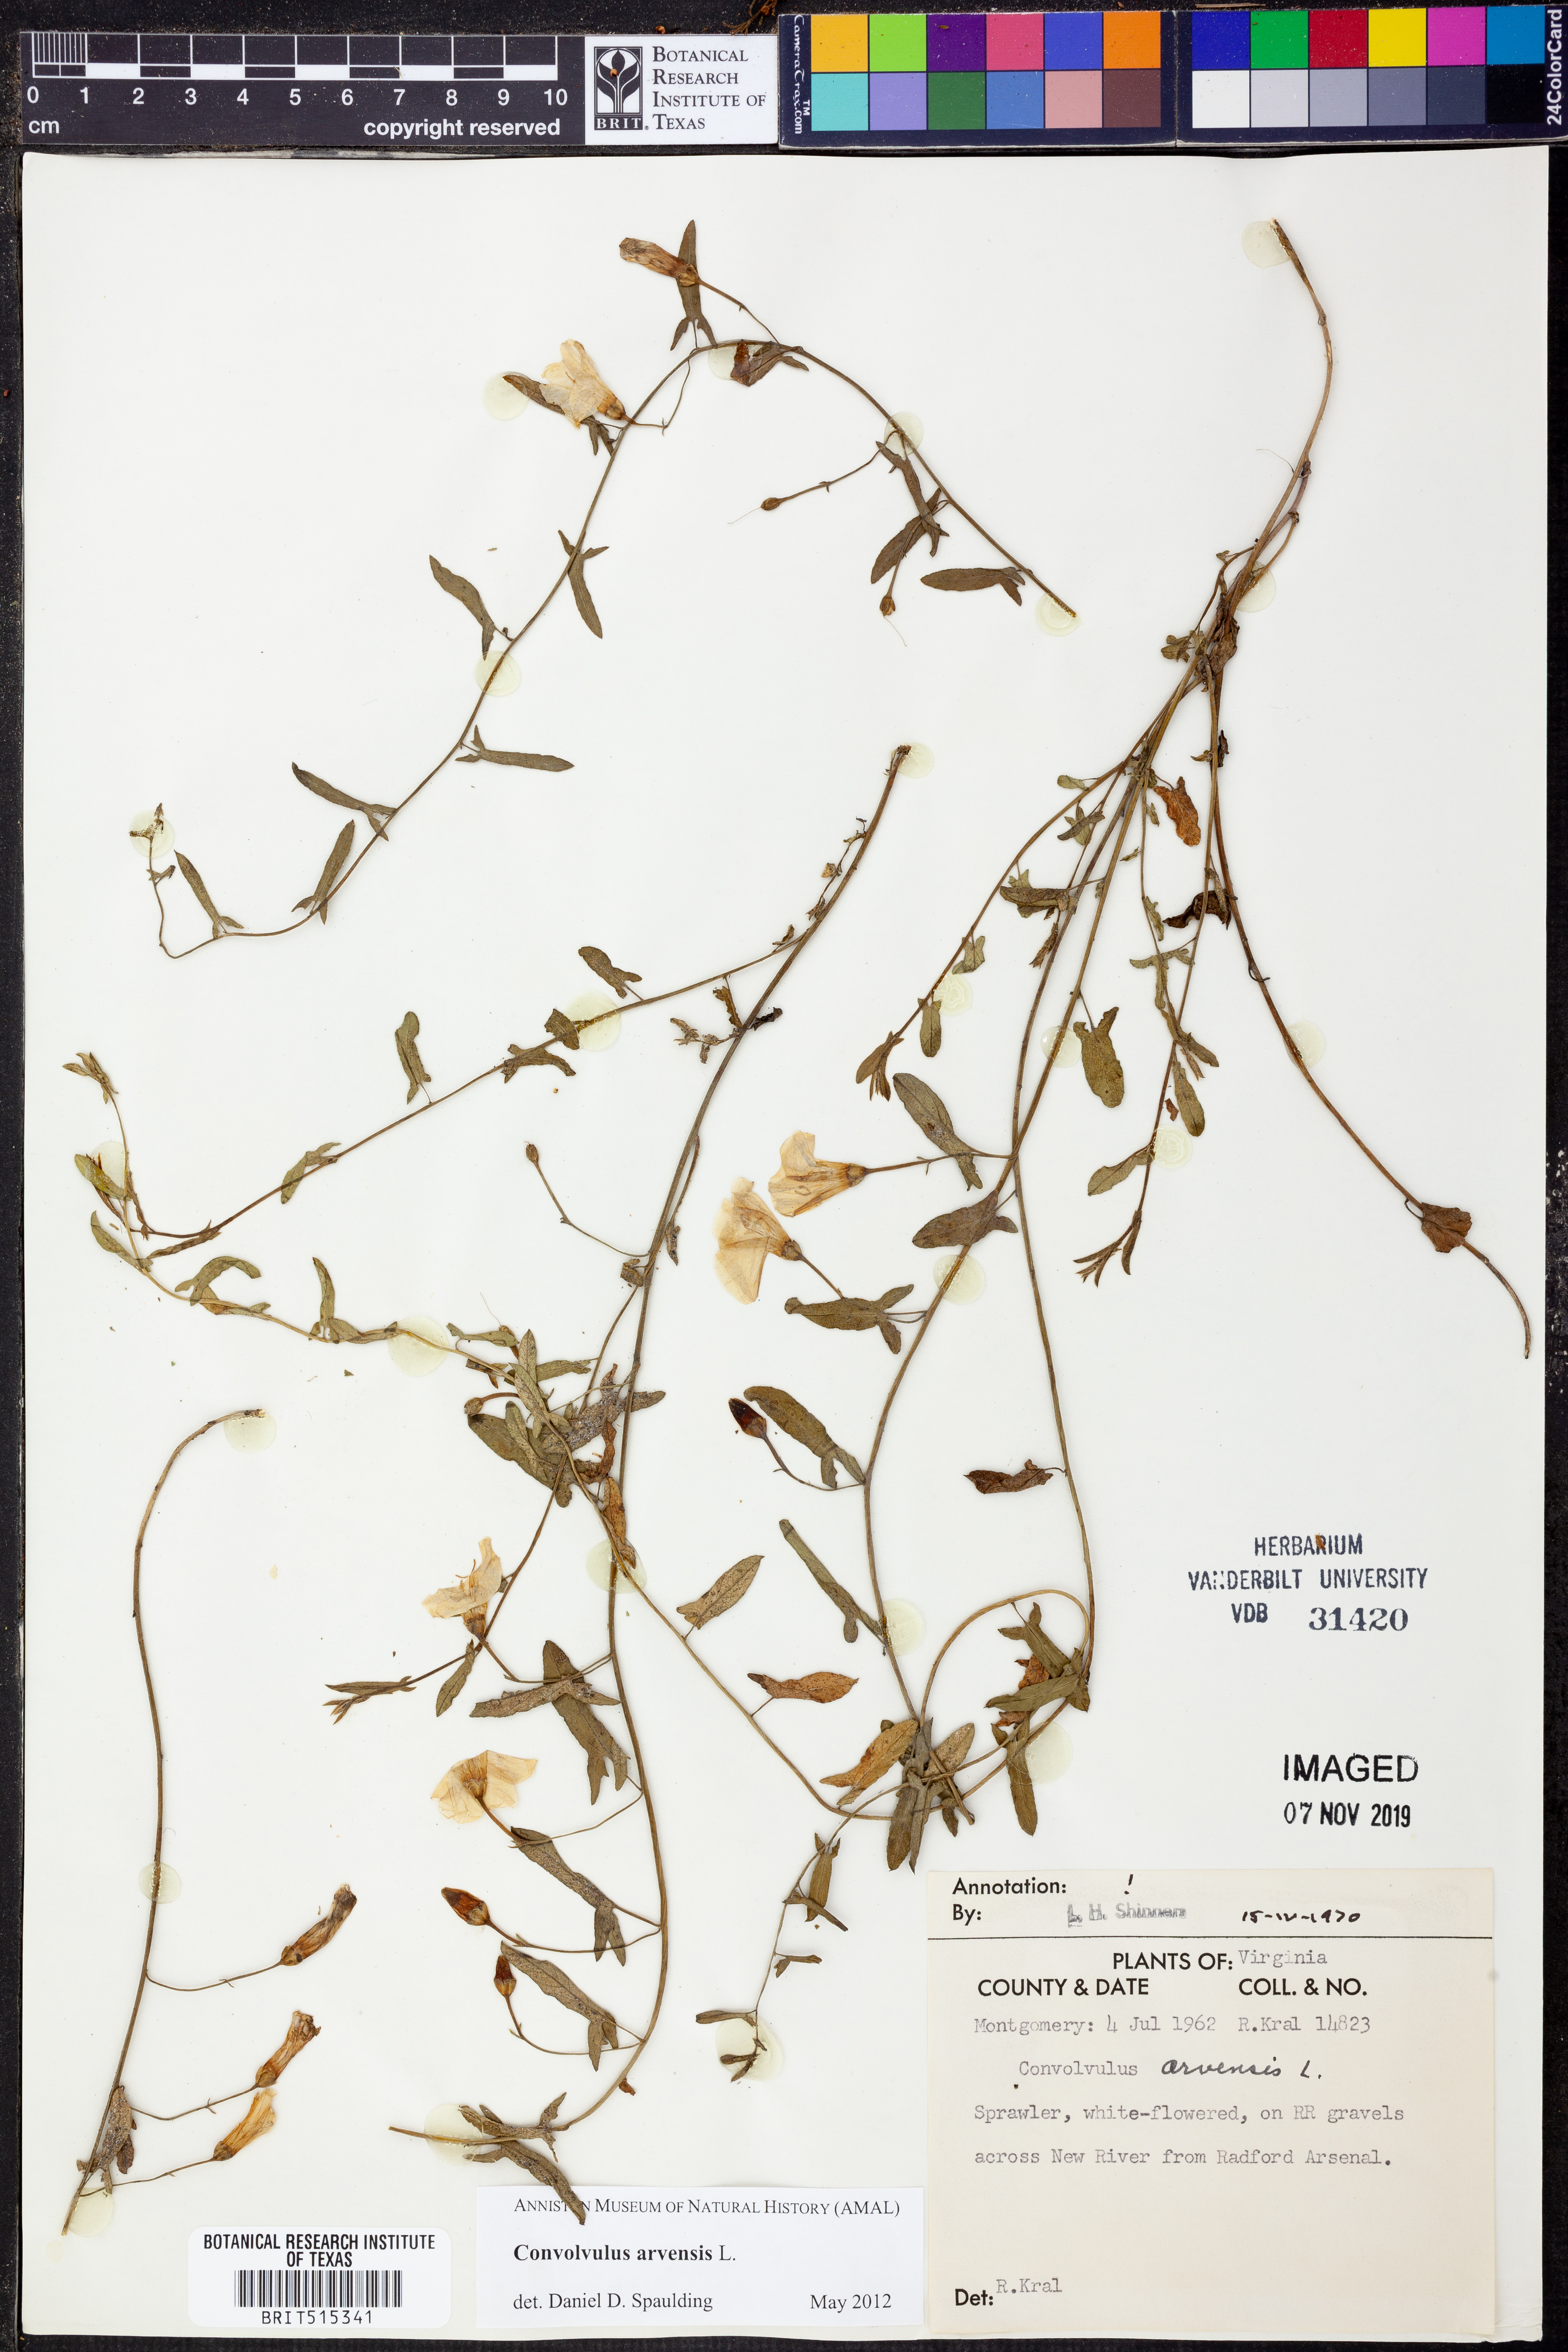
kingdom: Plantae
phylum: Tracheophyta
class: Magnoliopsida
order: Solanales
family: Convolvulaceae
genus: Convolvulus
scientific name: Convolvulus arvensis
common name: Field bindweed
